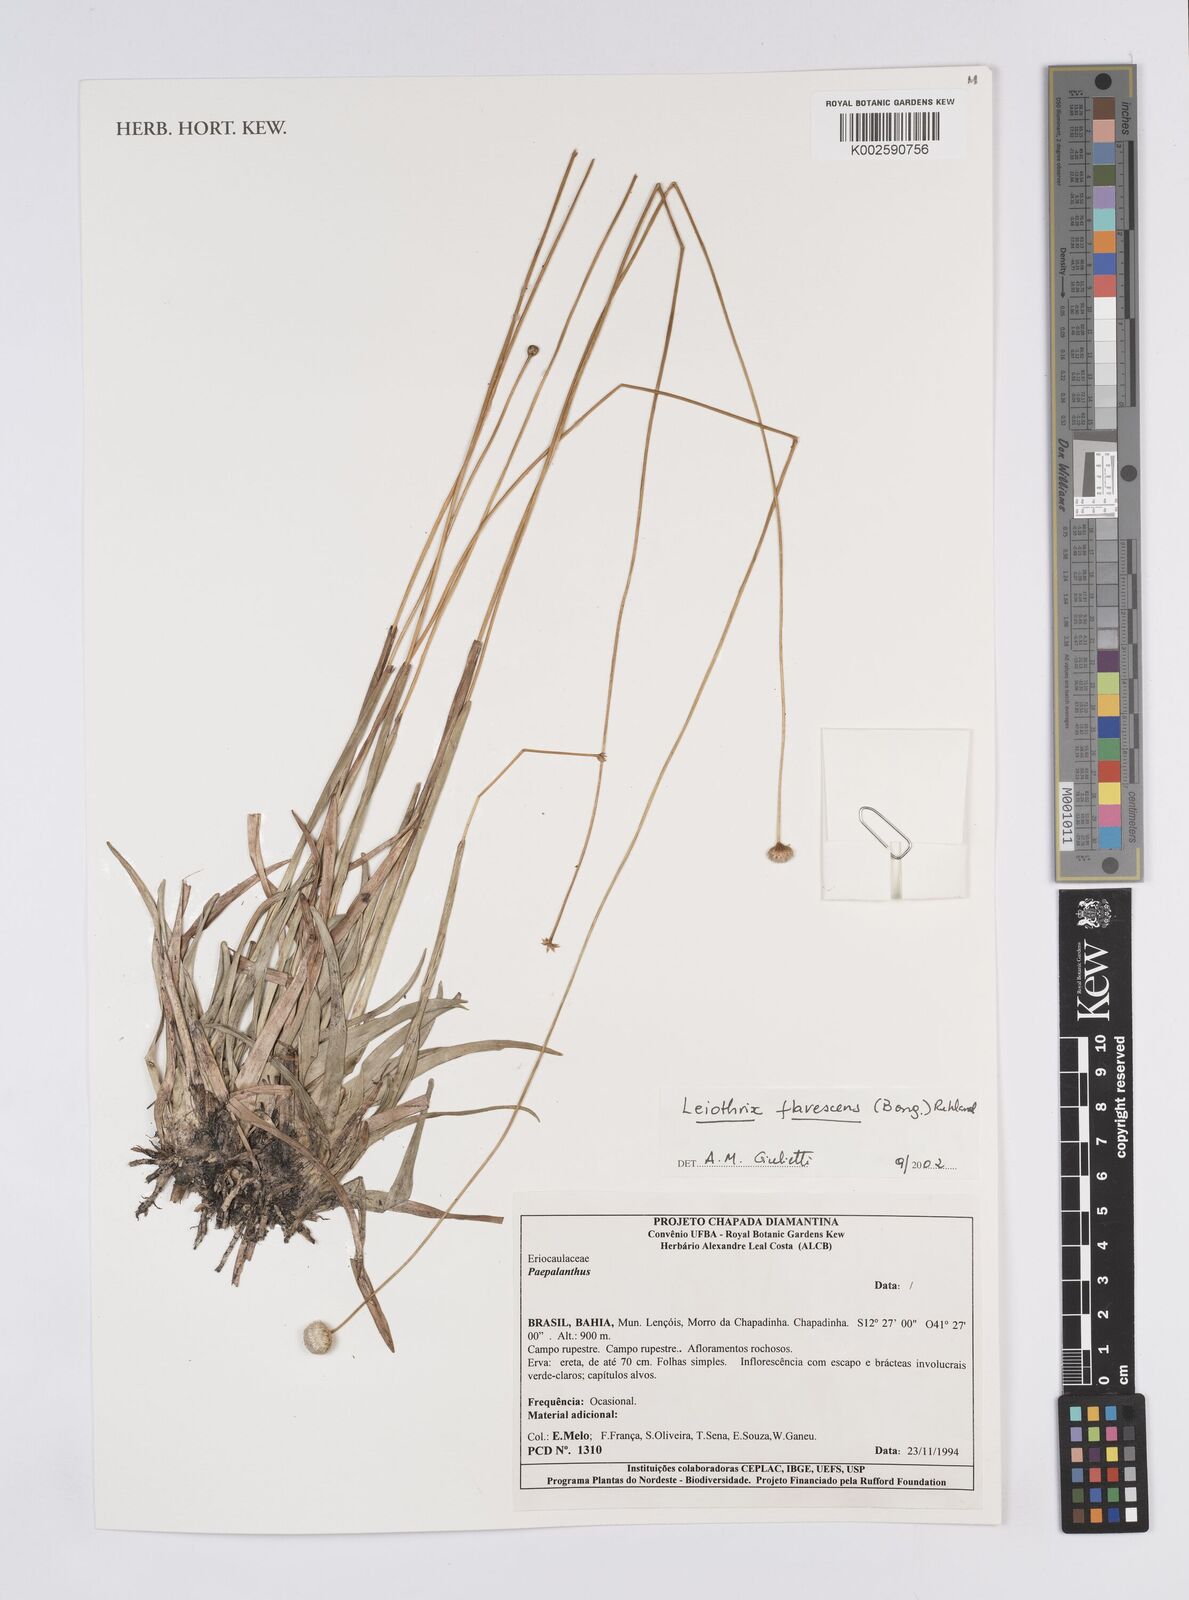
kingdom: Plantae
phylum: Tracheophyta
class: Liliopsida
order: Poales
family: Eriocaulaceae
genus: Leiothrix
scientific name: Leiothrix flavescens
